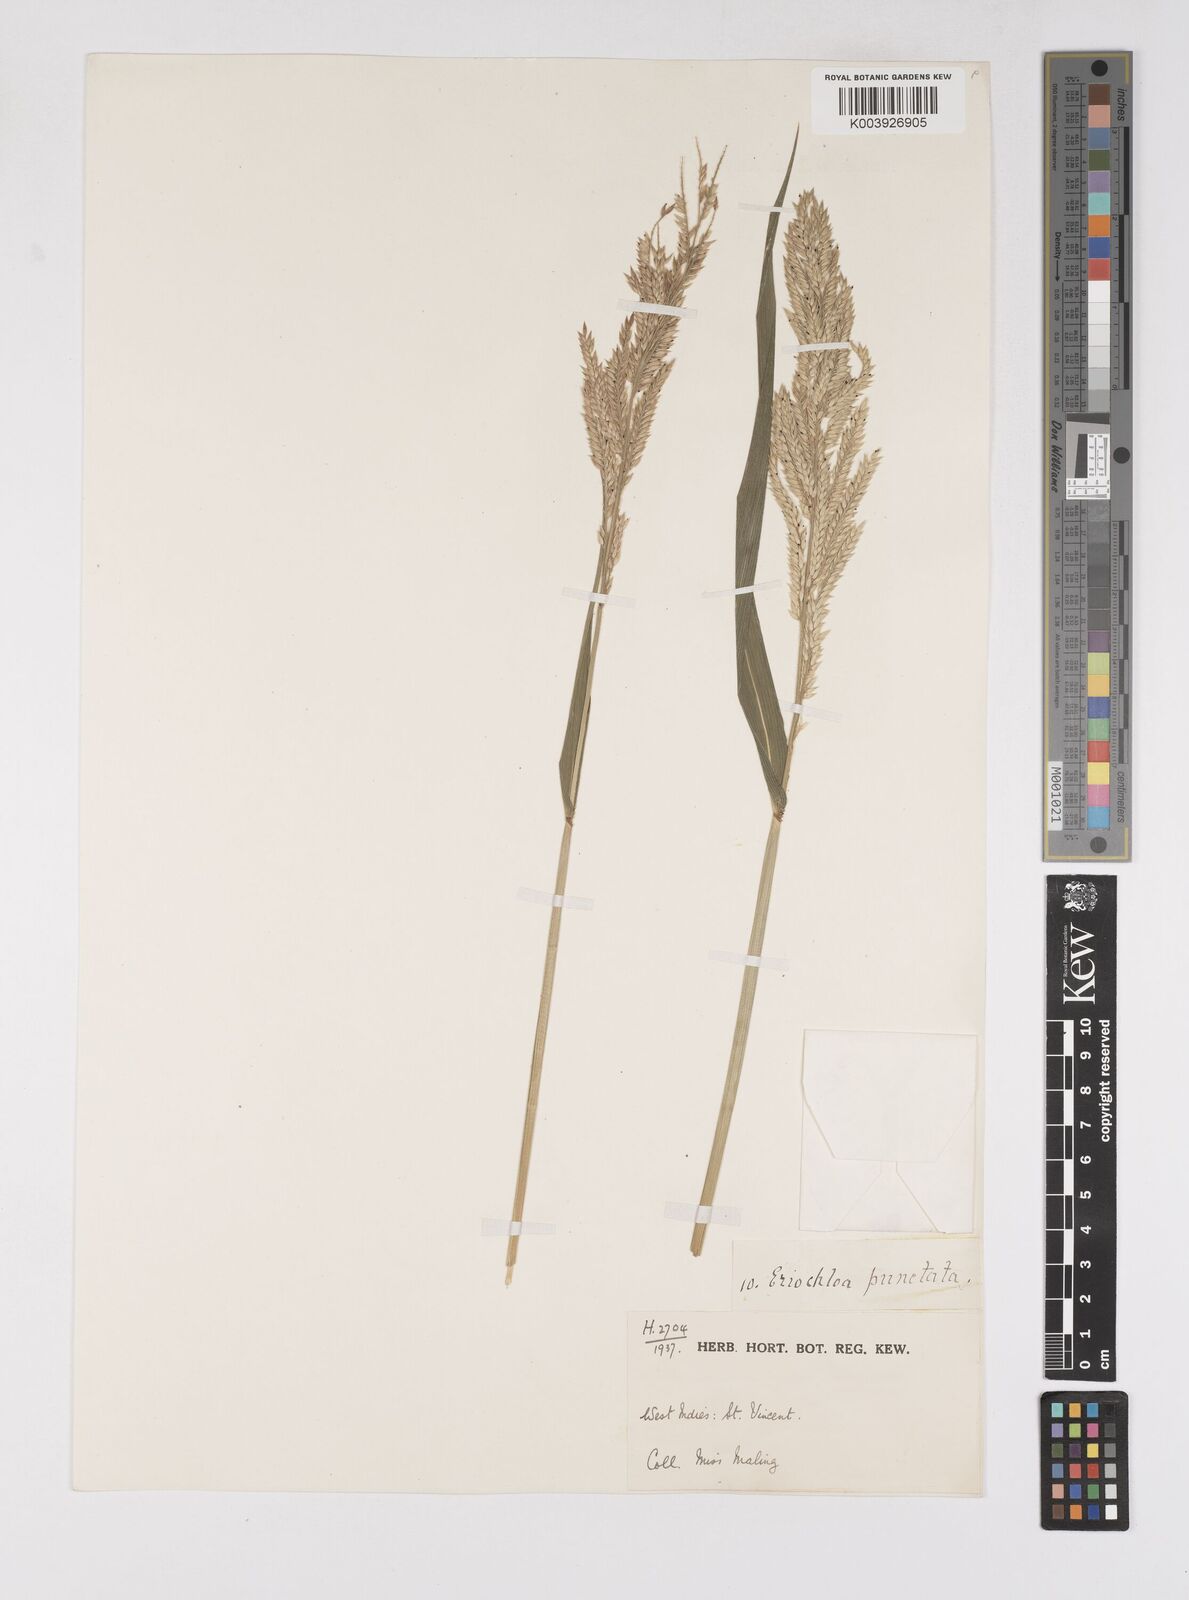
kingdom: Plantae
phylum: Tracheophyta
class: Liliopsida
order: Poales
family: Poaceae
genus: Eriochloa
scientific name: Eriochloa punctata
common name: Louisiana cupgrass
